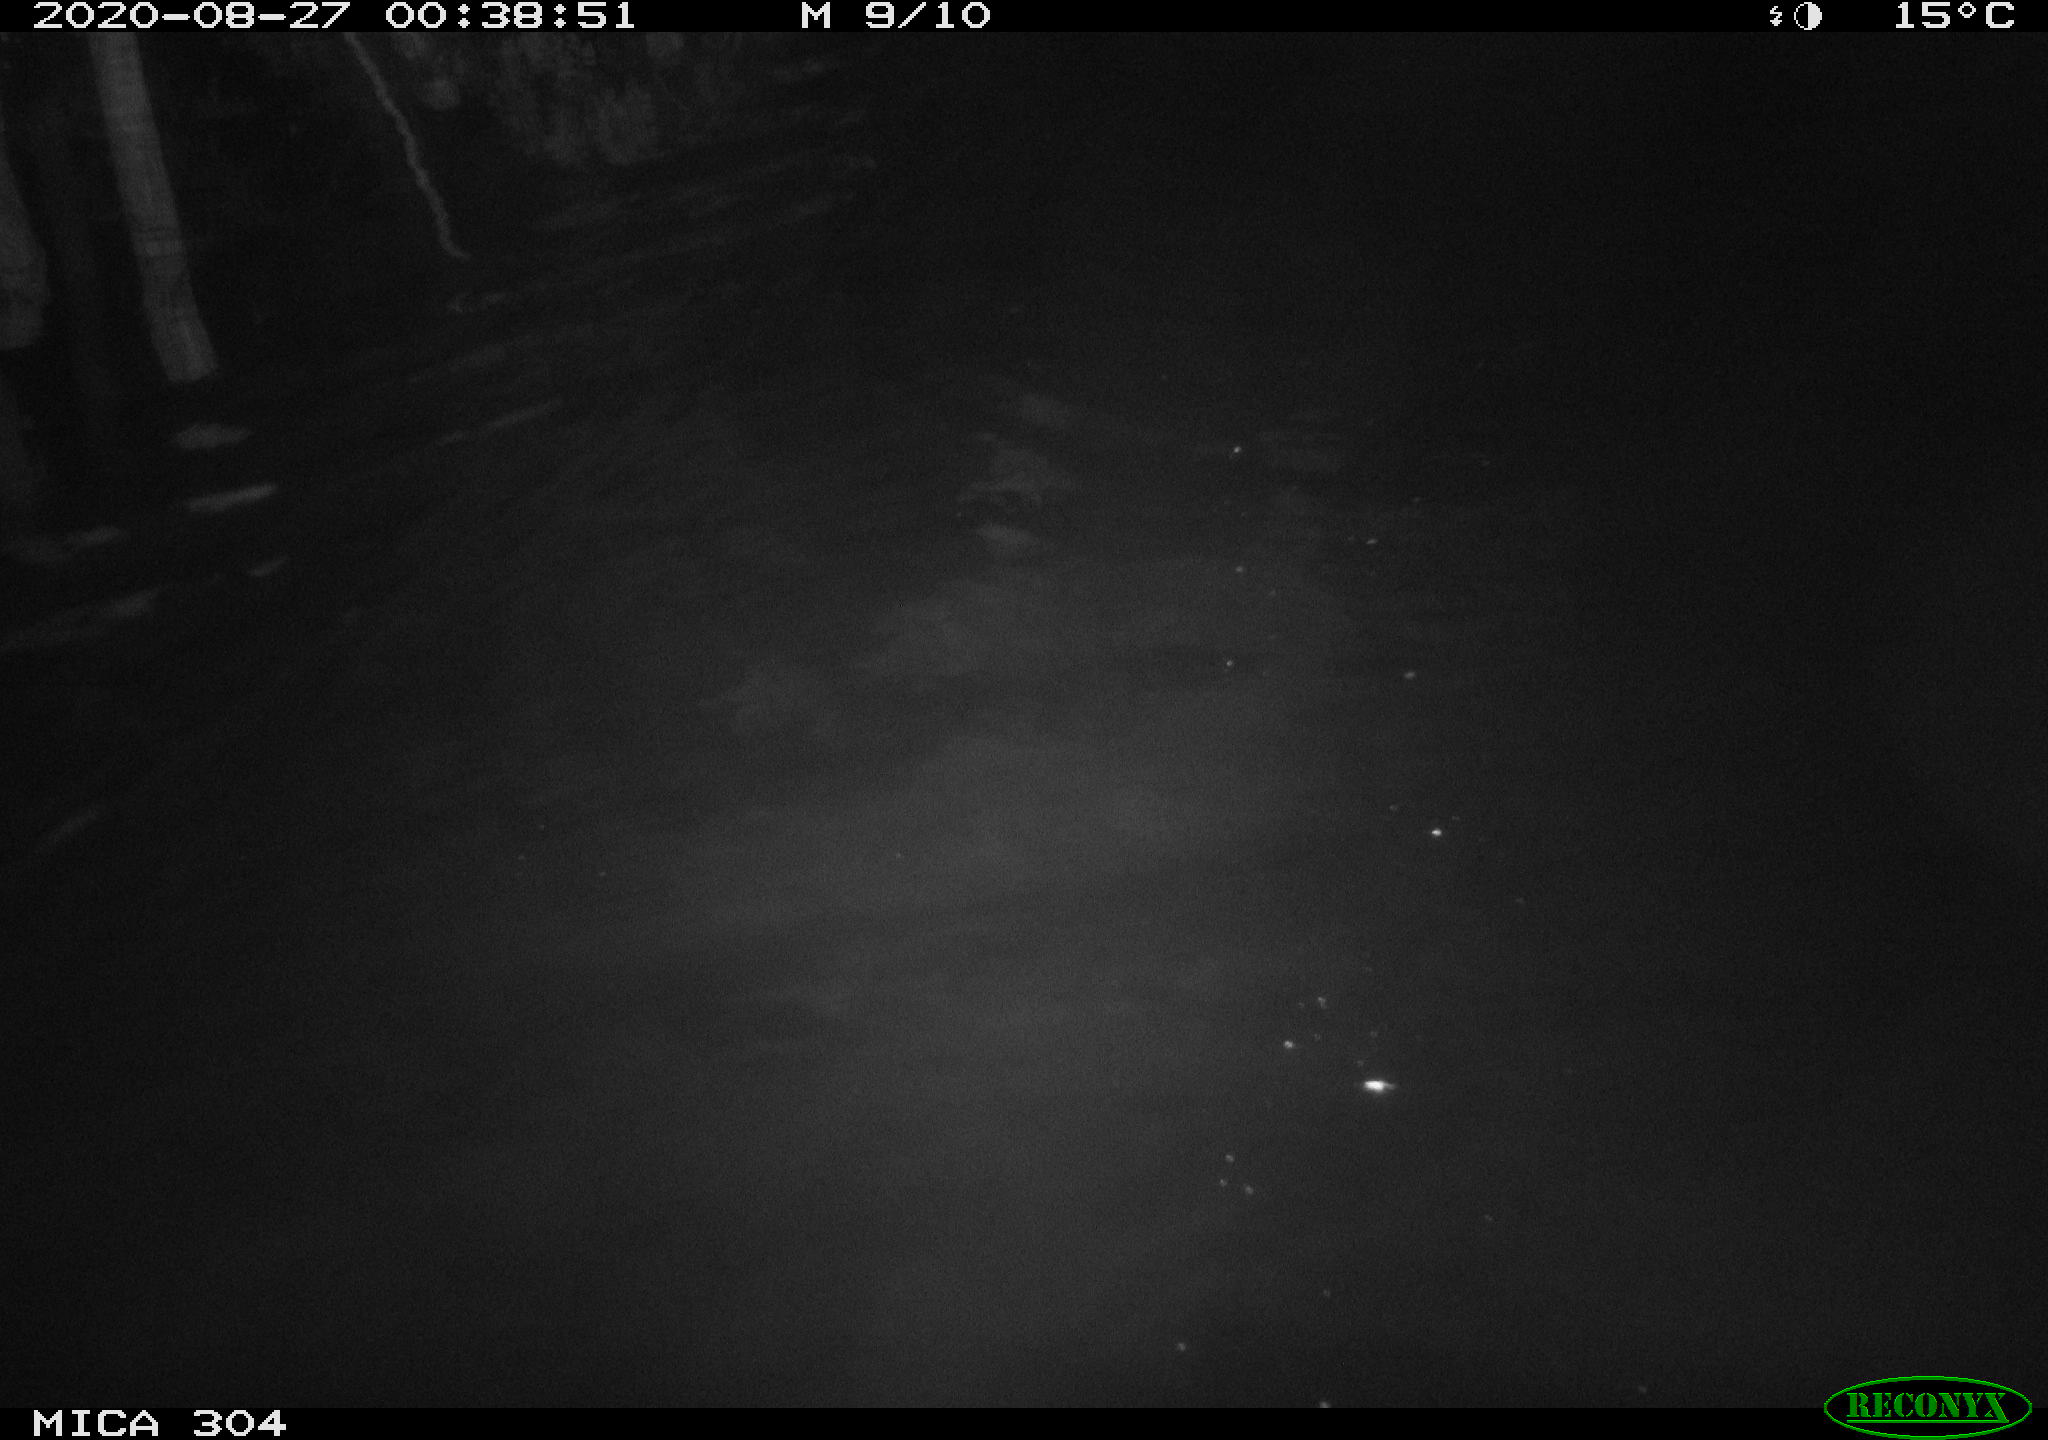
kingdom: Animalia
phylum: Chordata
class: Mammalia
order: Rodentia
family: Cricetidae
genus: Ondatra
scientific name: Ondatra zibethicus
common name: Muskrat
